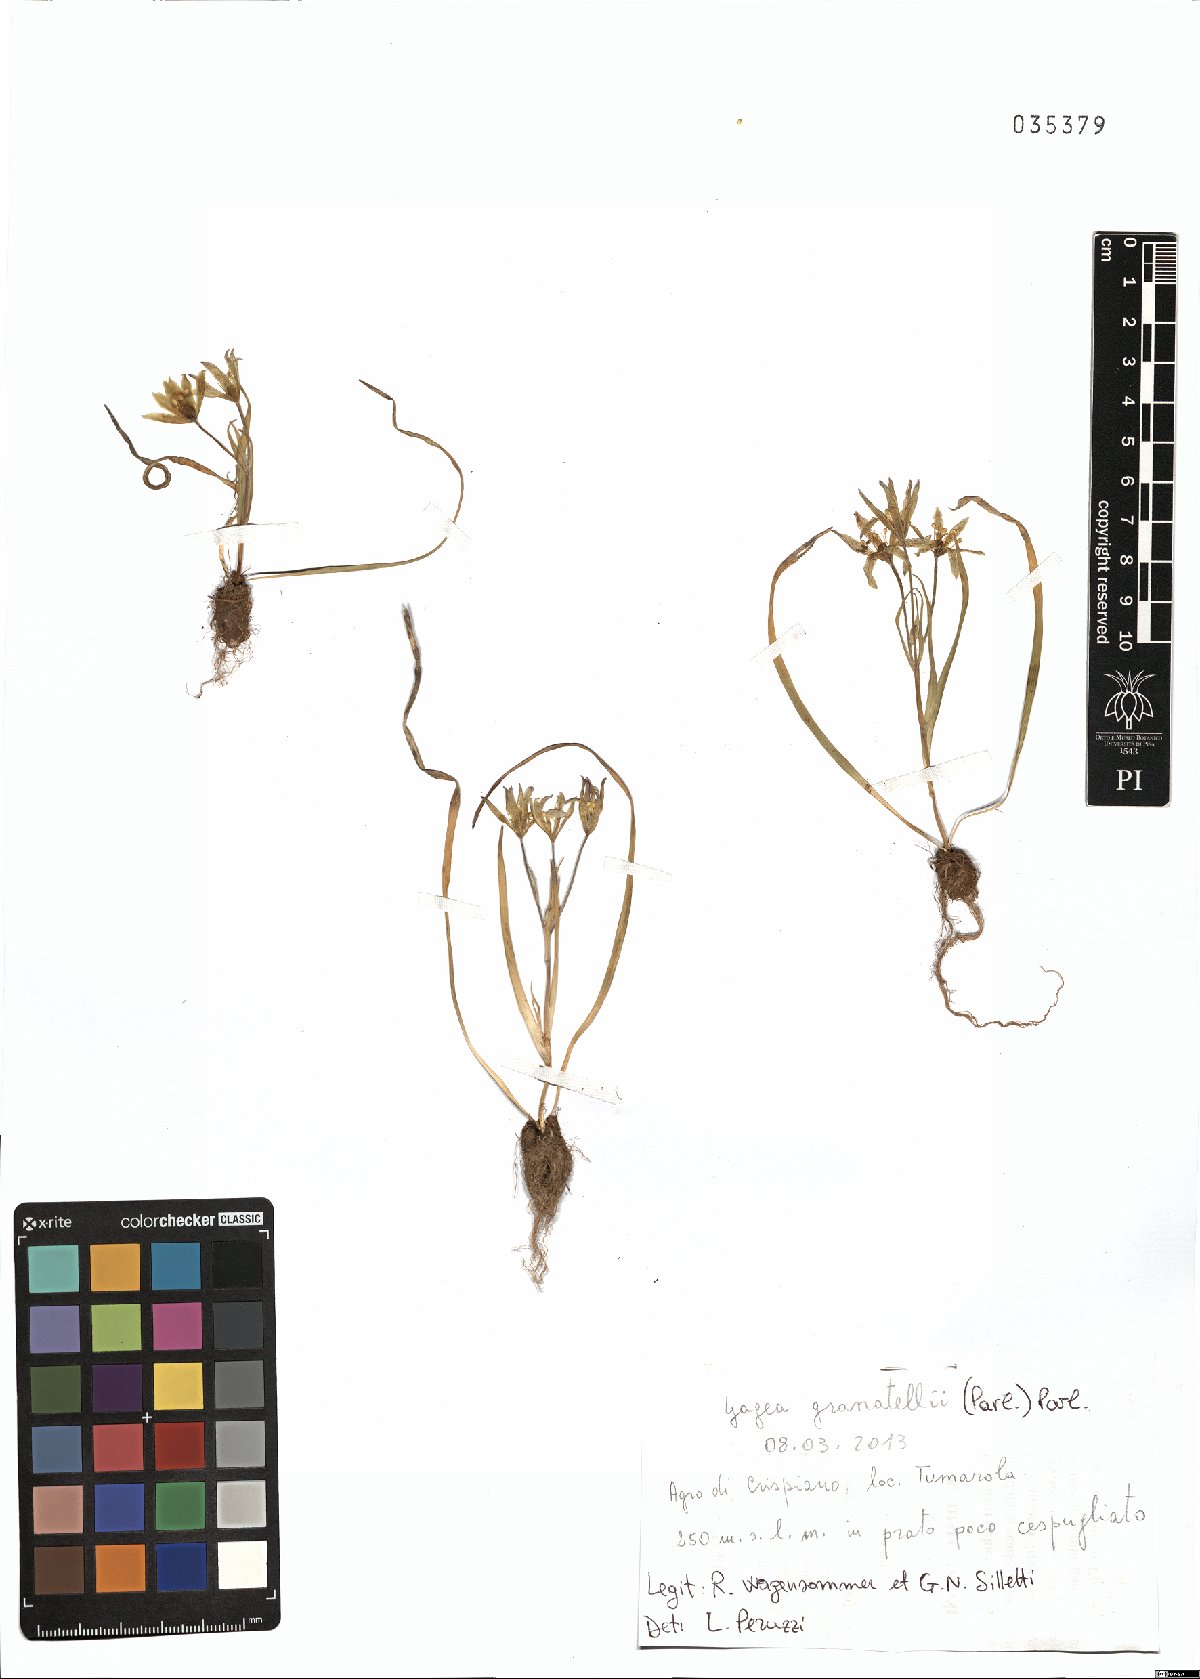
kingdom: Plantae
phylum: Tracheophyta
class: Liliopsida
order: Liliales
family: Liliaceae
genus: Gagea
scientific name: Gagea granatellii
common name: Granatelli’s gagea
